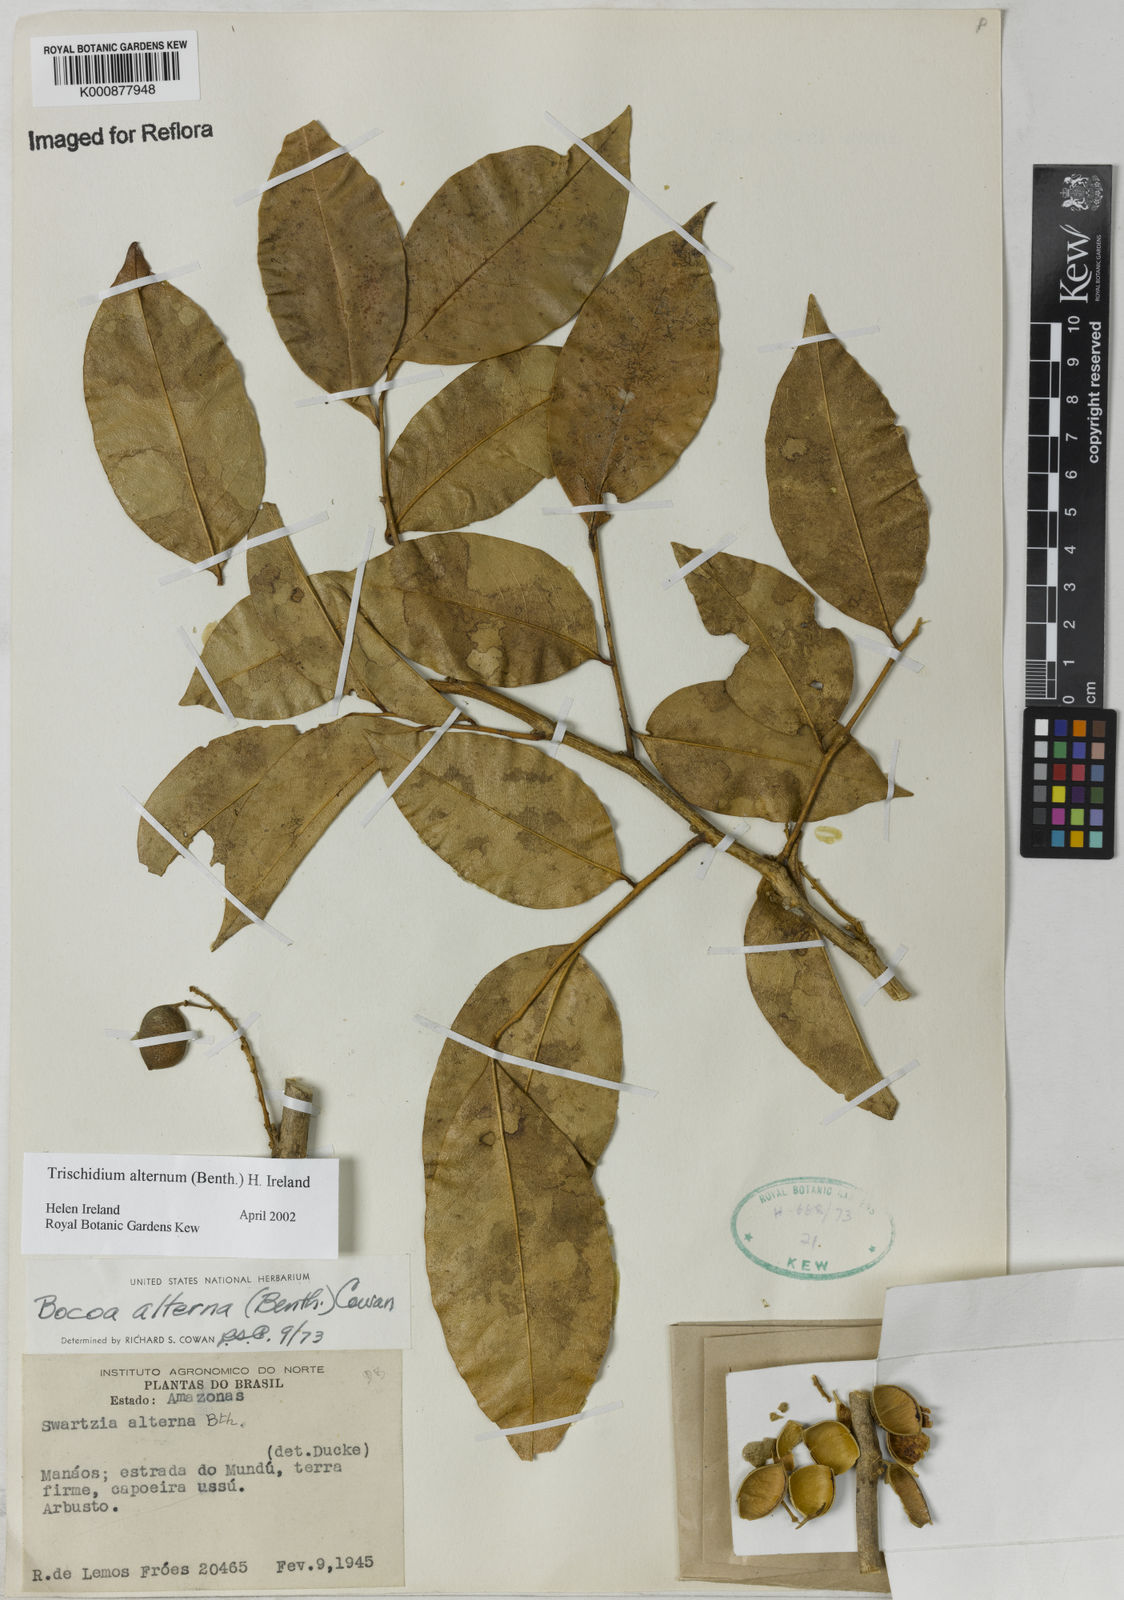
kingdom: Plantae
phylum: Tracheophyta
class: Magnoliopsida
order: Fabales
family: Fabaceae
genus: Trischidium
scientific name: Trischidium alternum
